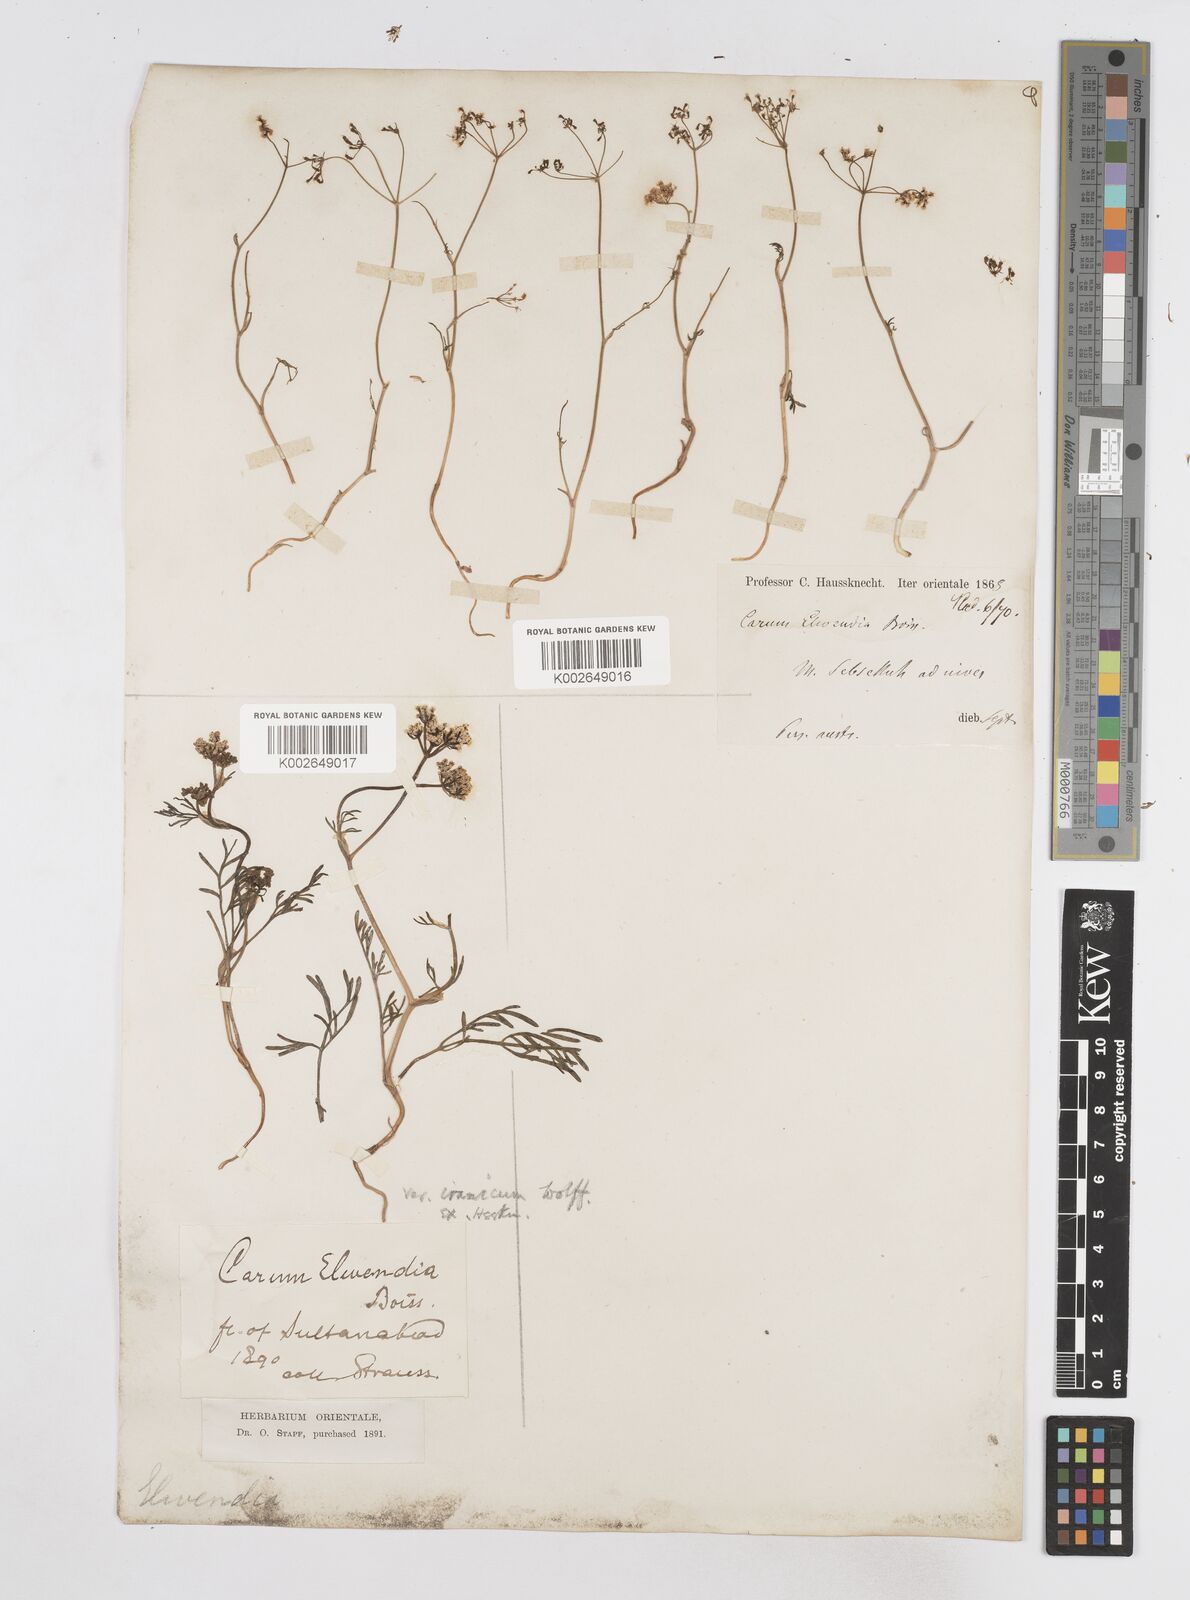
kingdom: Plantae
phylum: Tracheophyta
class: Magnoliopsida
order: Apiales
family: Apiaceae
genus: Elwendia
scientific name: Elwendia caroides
